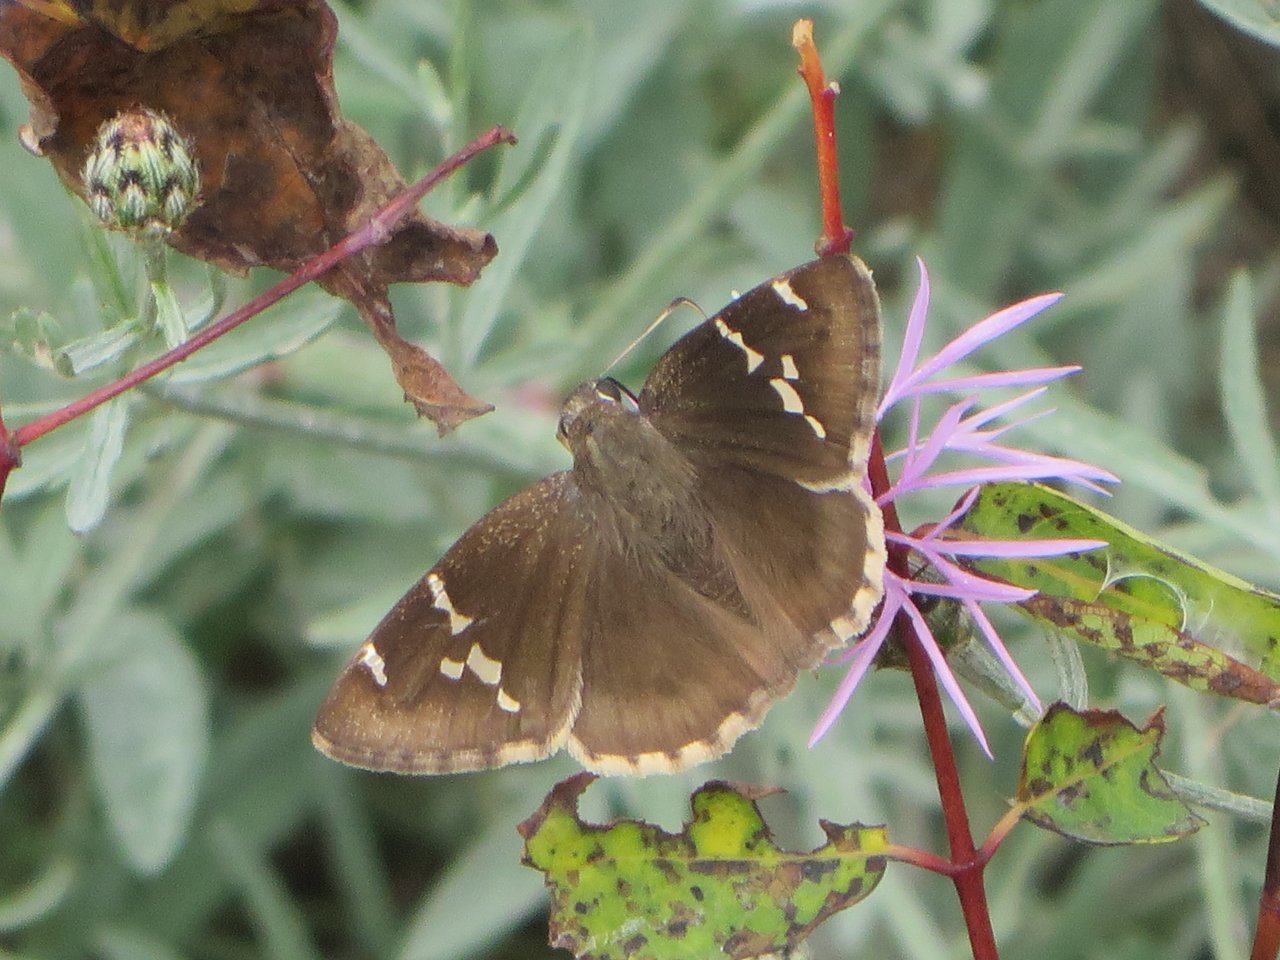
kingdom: Animalia
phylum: Arthropoda
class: Insecta
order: Lepidoptera
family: Hesperiidae
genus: Autochton
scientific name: Autochton
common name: Southern Cloudywing
